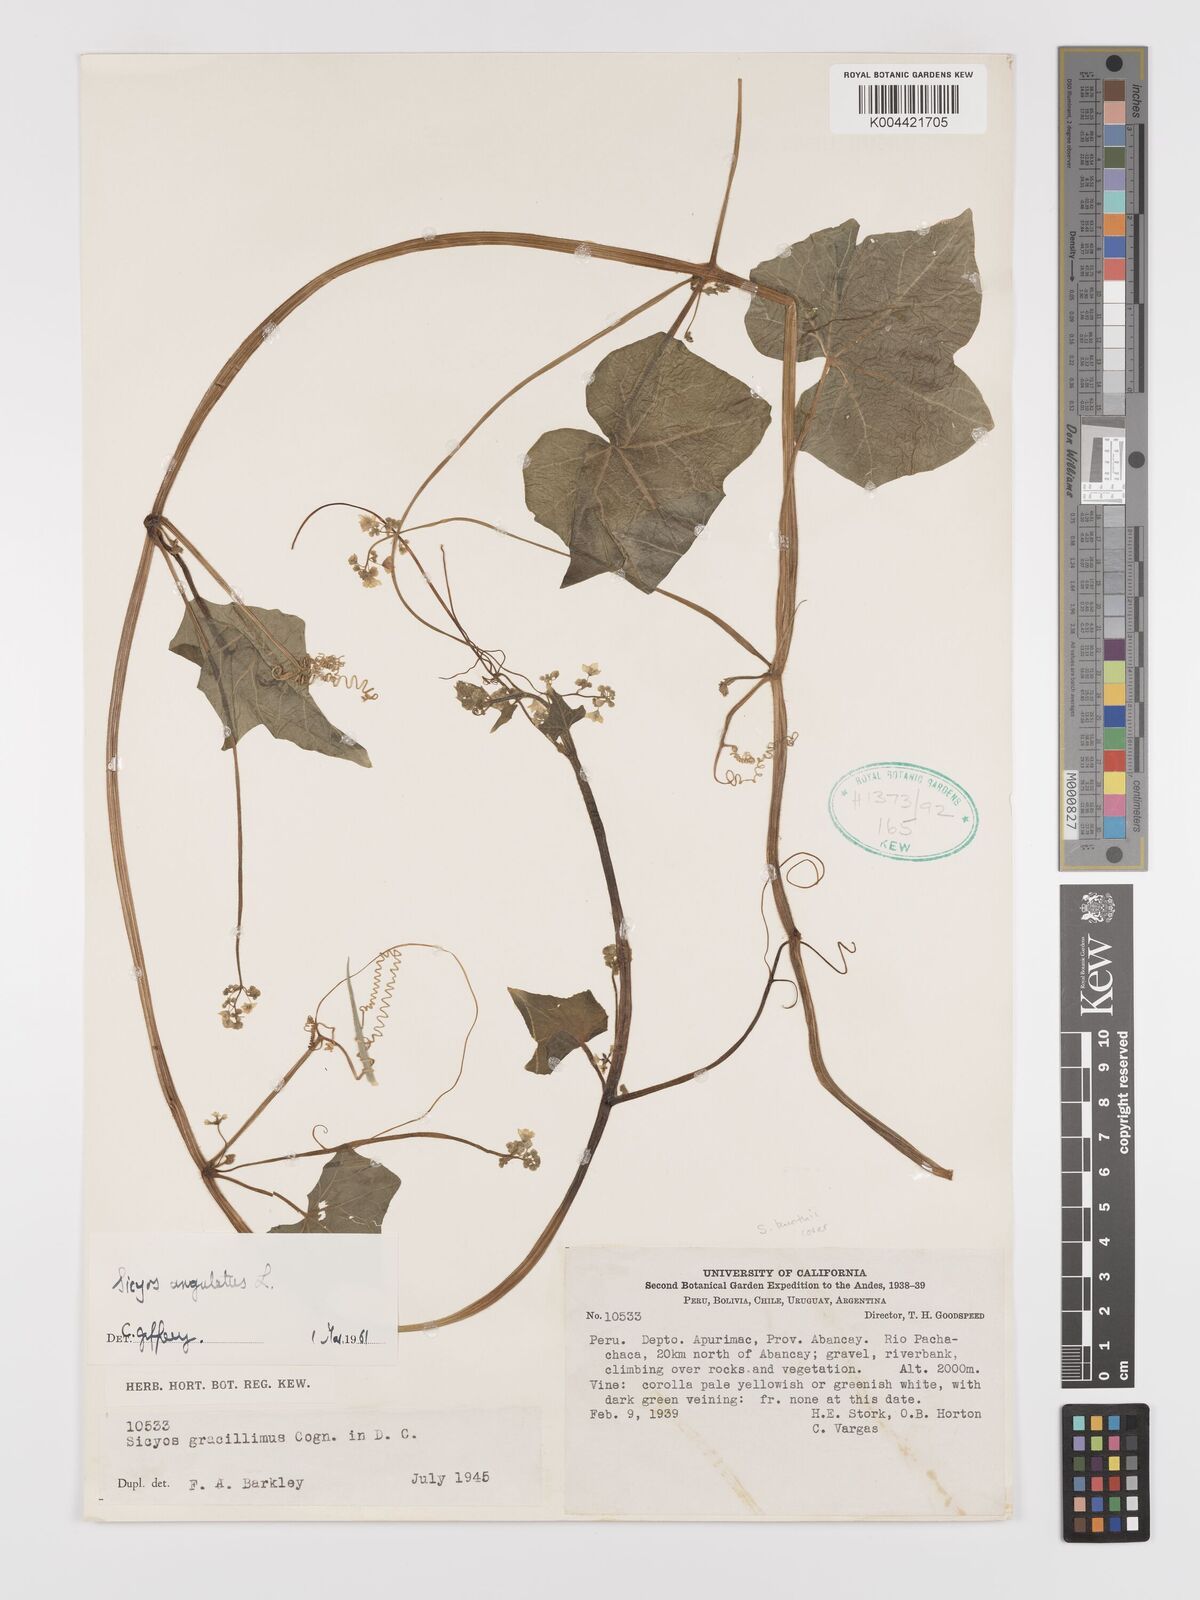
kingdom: Plantae
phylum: Tracheophyta
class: Magnoliopsida
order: Cucurbitales
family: Cucurbitaceae
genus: Sicyos
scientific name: Sicyos kunthii
